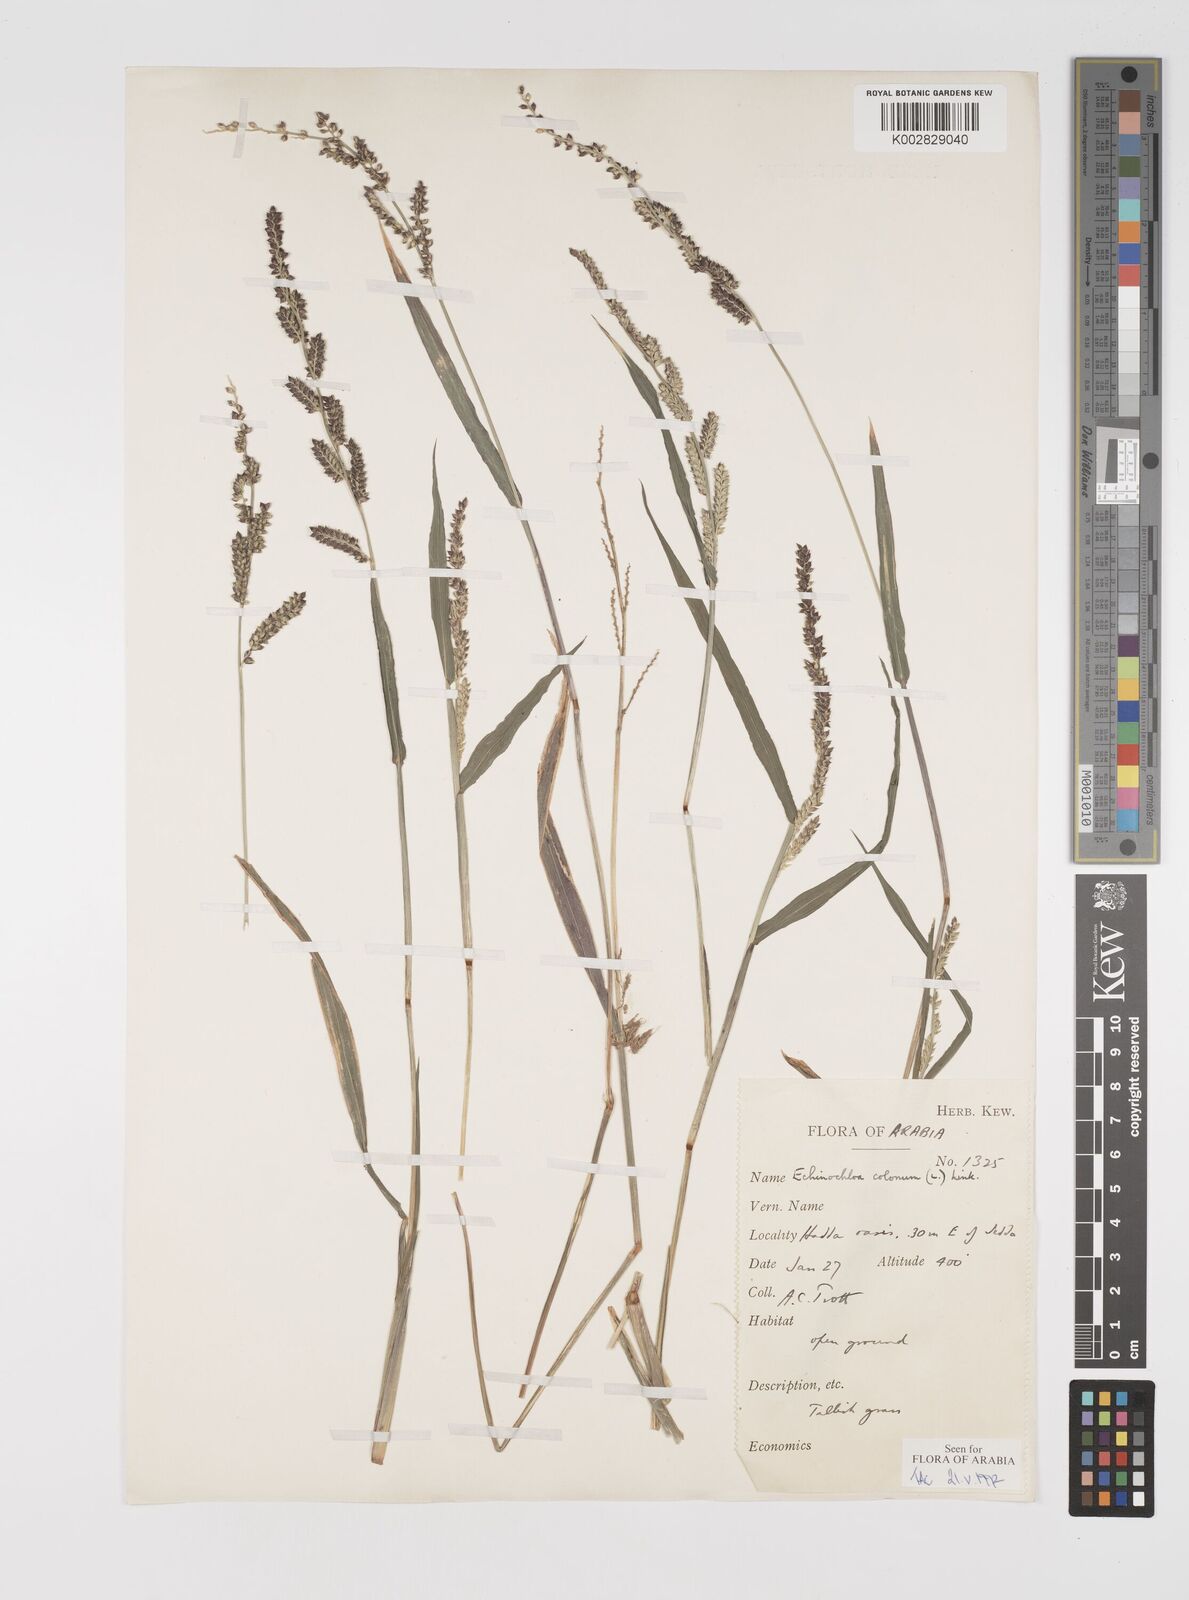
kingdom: Plantae
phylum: Tracheophyta
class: Liliopsida
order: Poales
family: Poaceae
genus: Echinochloa
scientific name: Echinochloa colonum
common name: Jungle rice
